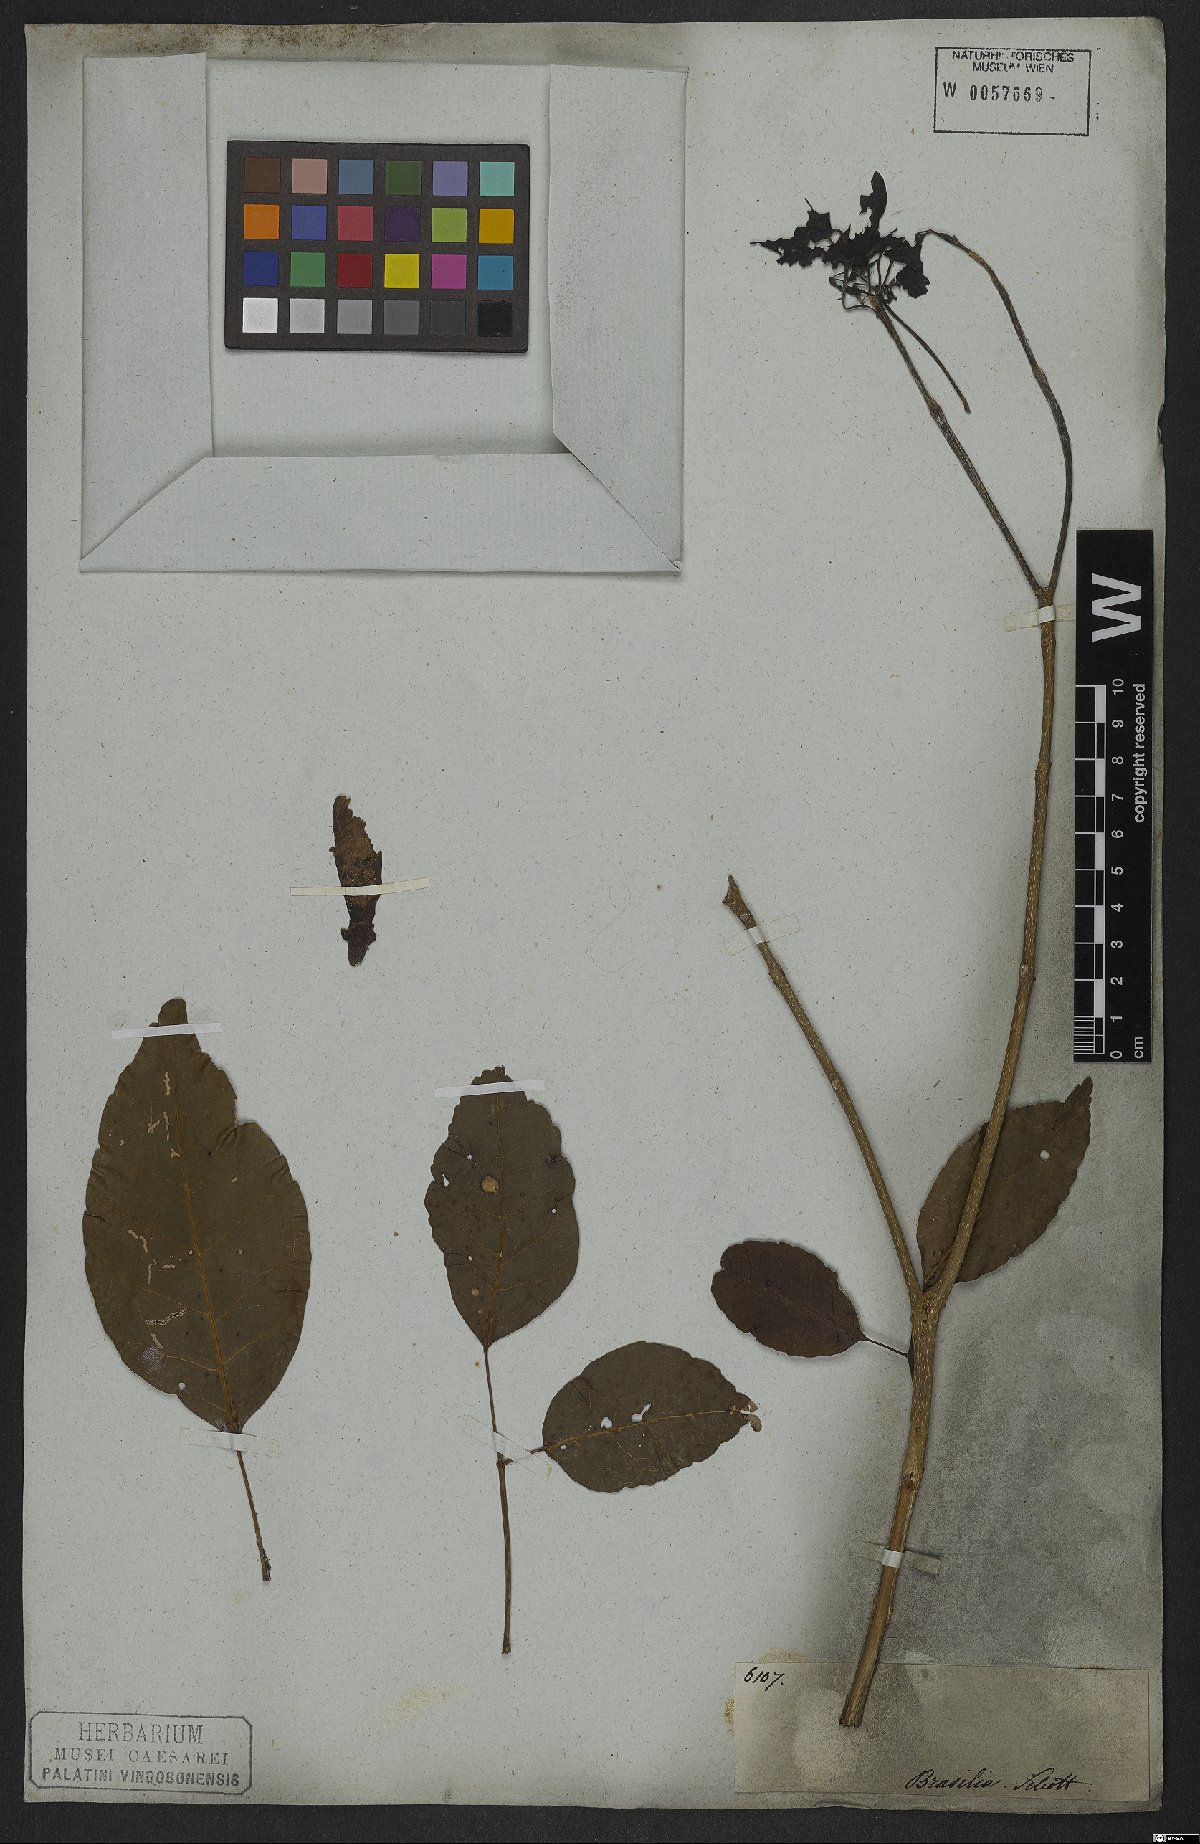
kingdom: Plantae
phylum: Tracheophyta
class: Magnoliopsida
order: Lamiales
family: Bignoniaceae
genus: Handroanthus
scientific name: Handroanthus serratifolius
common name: Yellow ipe
